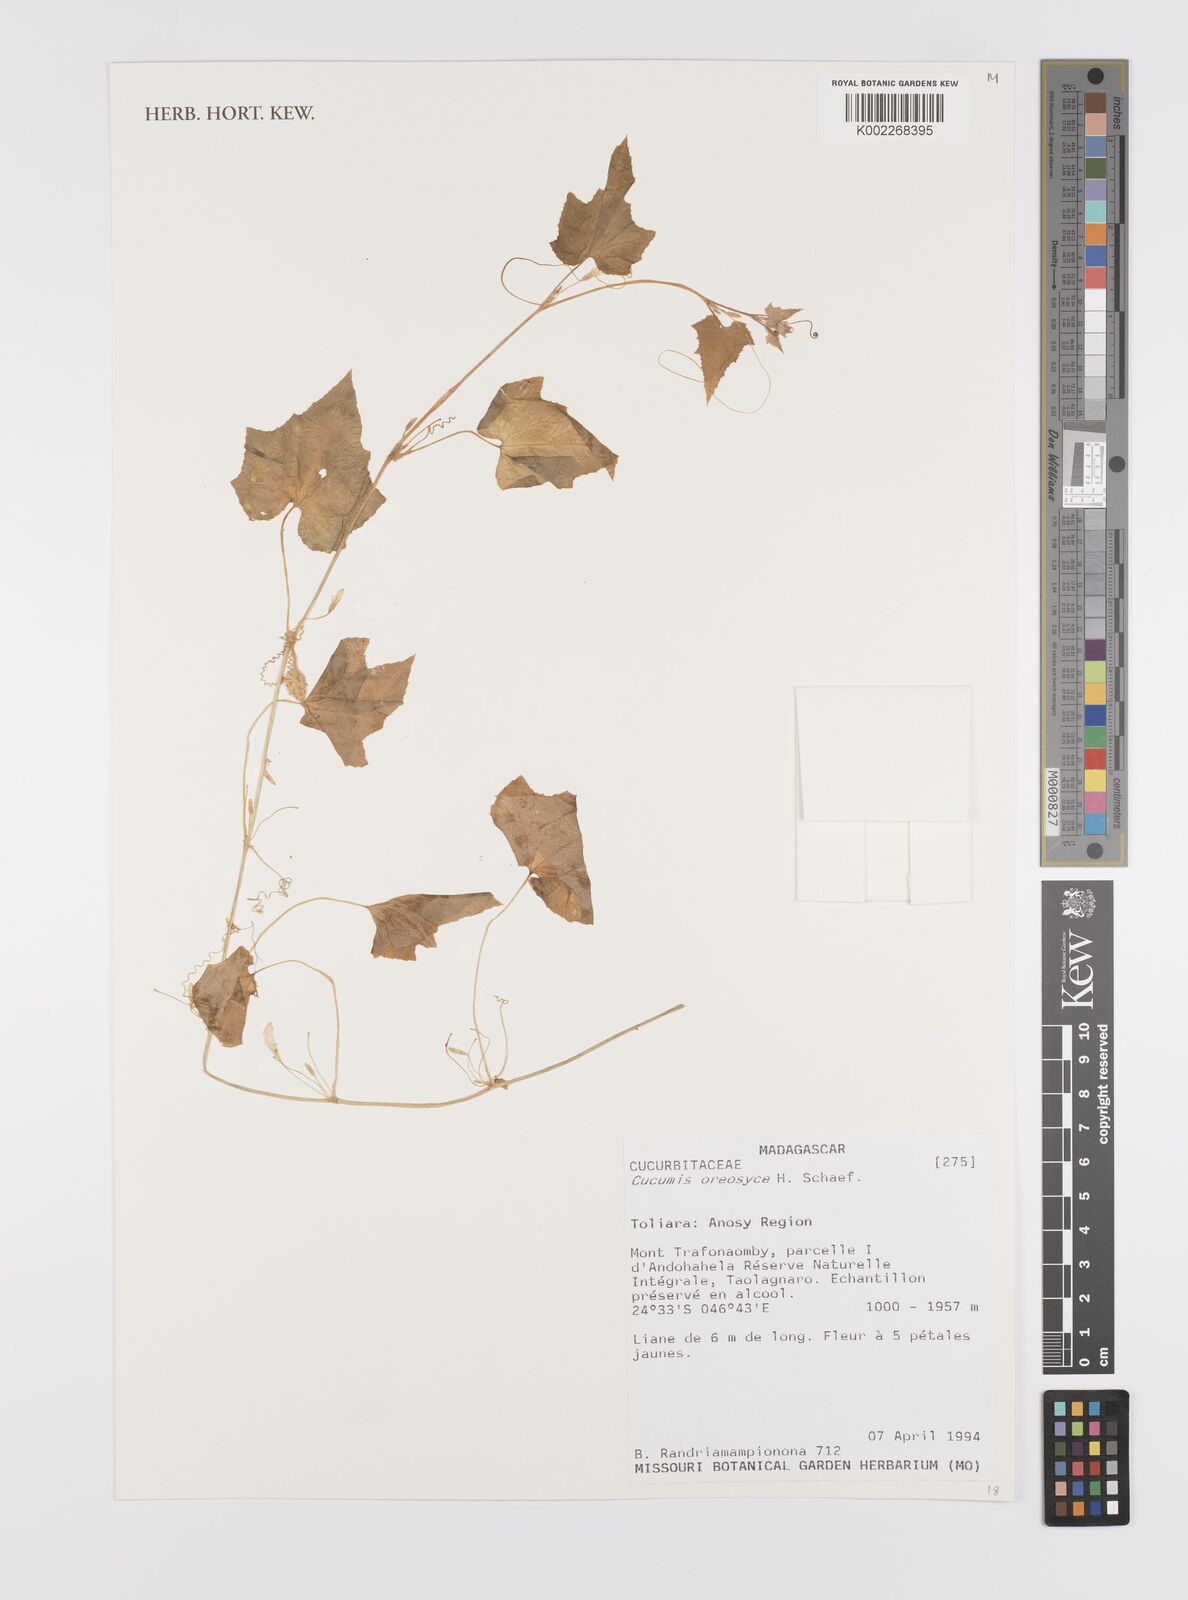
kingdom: Plantae
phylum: Tracheophyta
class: Magnoliopsida
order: Cucurbitales
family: Cucurbitaceae
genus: Cucumis
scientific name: Cucumis oreosyce
